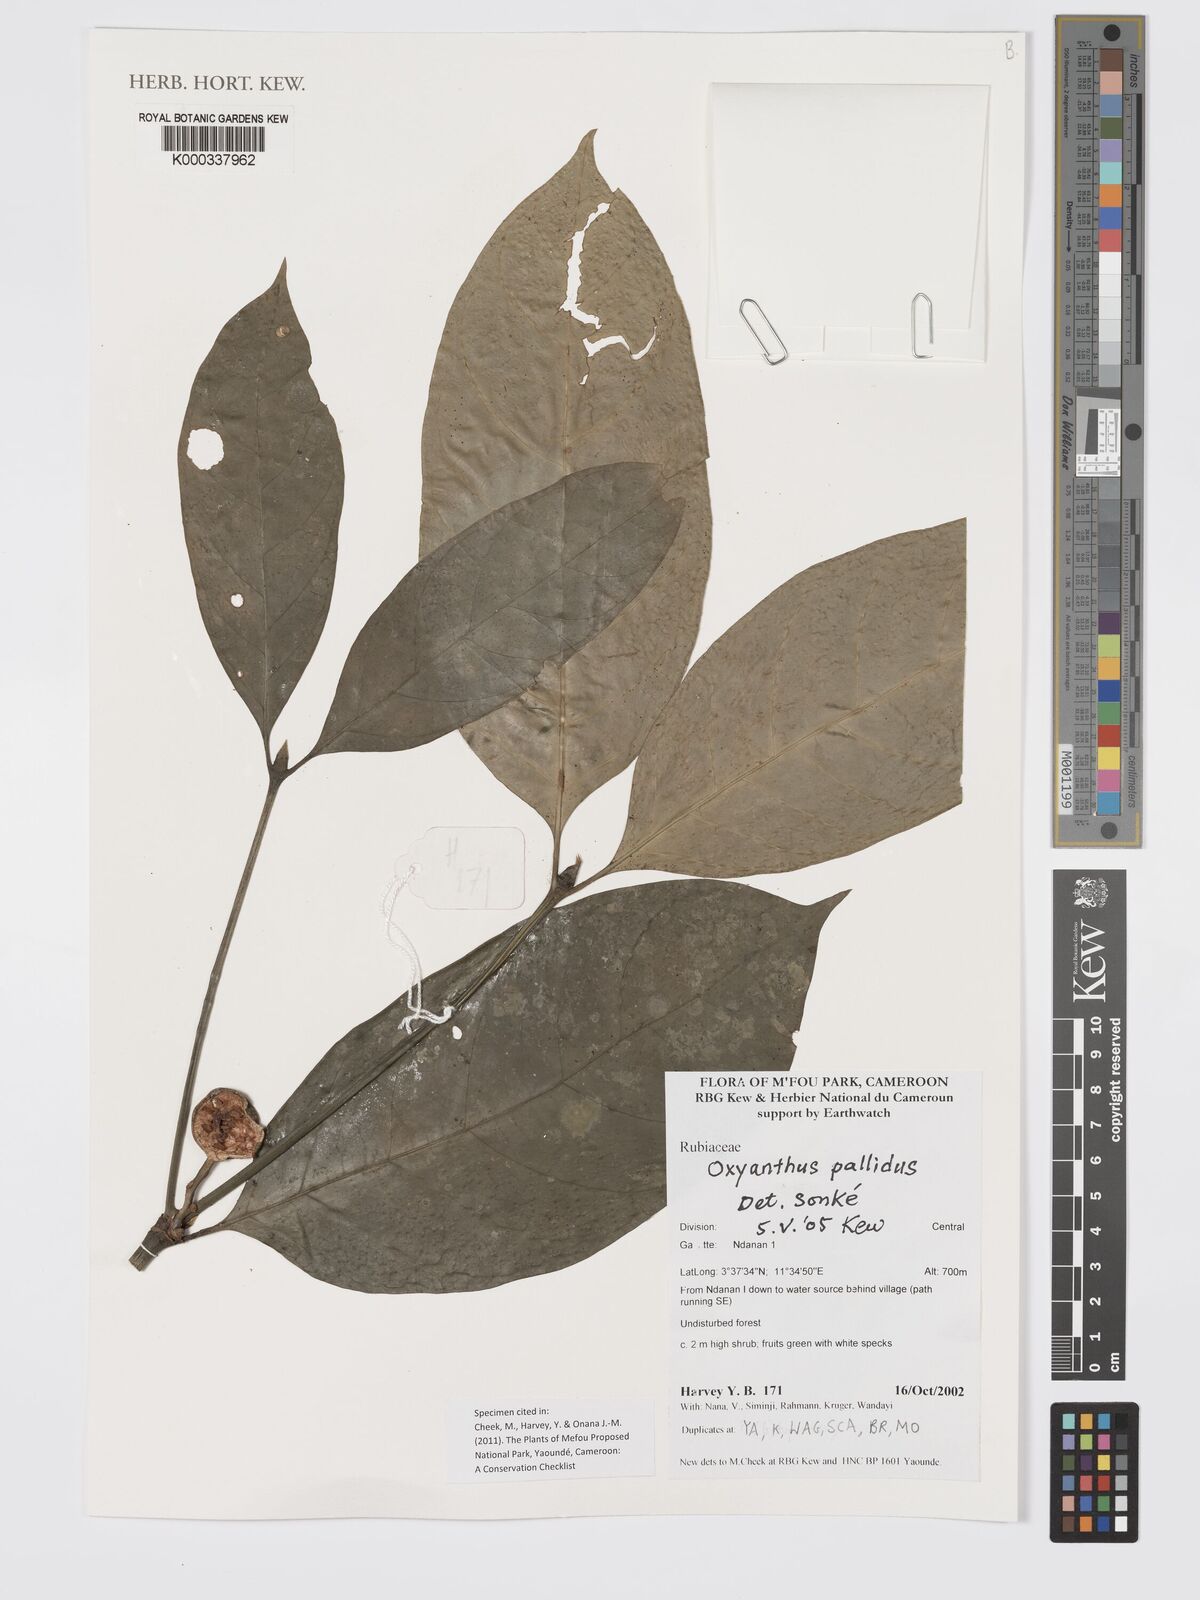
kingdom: Plantae
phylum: Tracheophyta
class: Magnoliopsida
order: Gentianales
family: Rubiaceae
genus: Oxyanthus
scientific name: Oxyanthus pallidus
